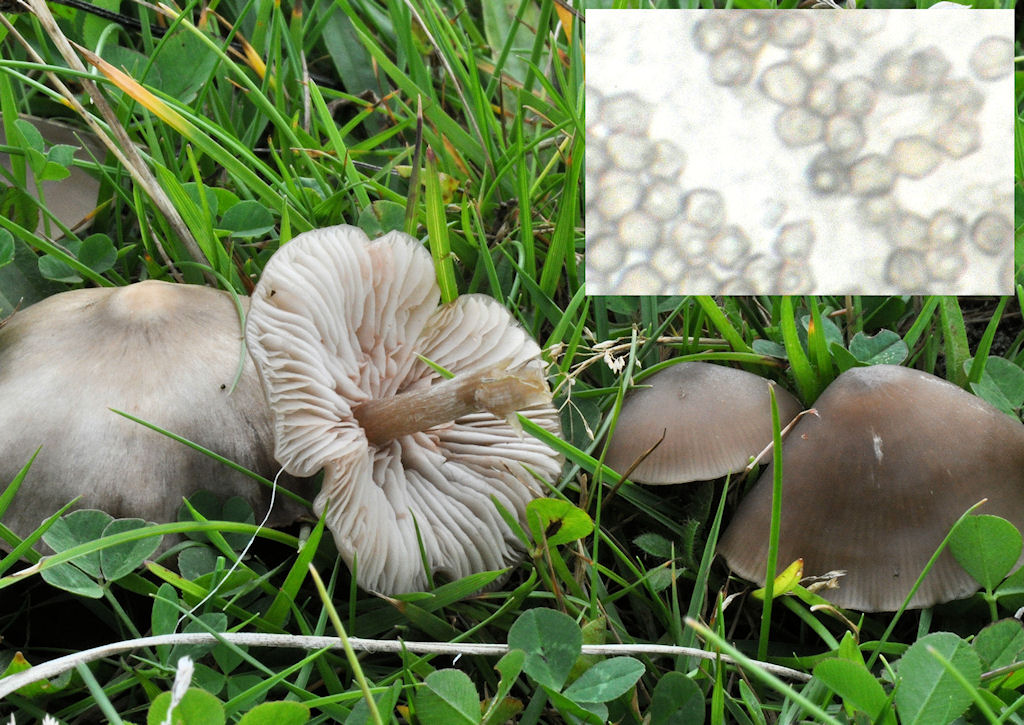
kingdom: Fungi
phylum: Basidiomycota
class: Agaricomycetes
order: Agaricales
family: Entolomataceae
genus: Entoloma
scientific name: Entoloma ameides
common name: sødlig rødblad
